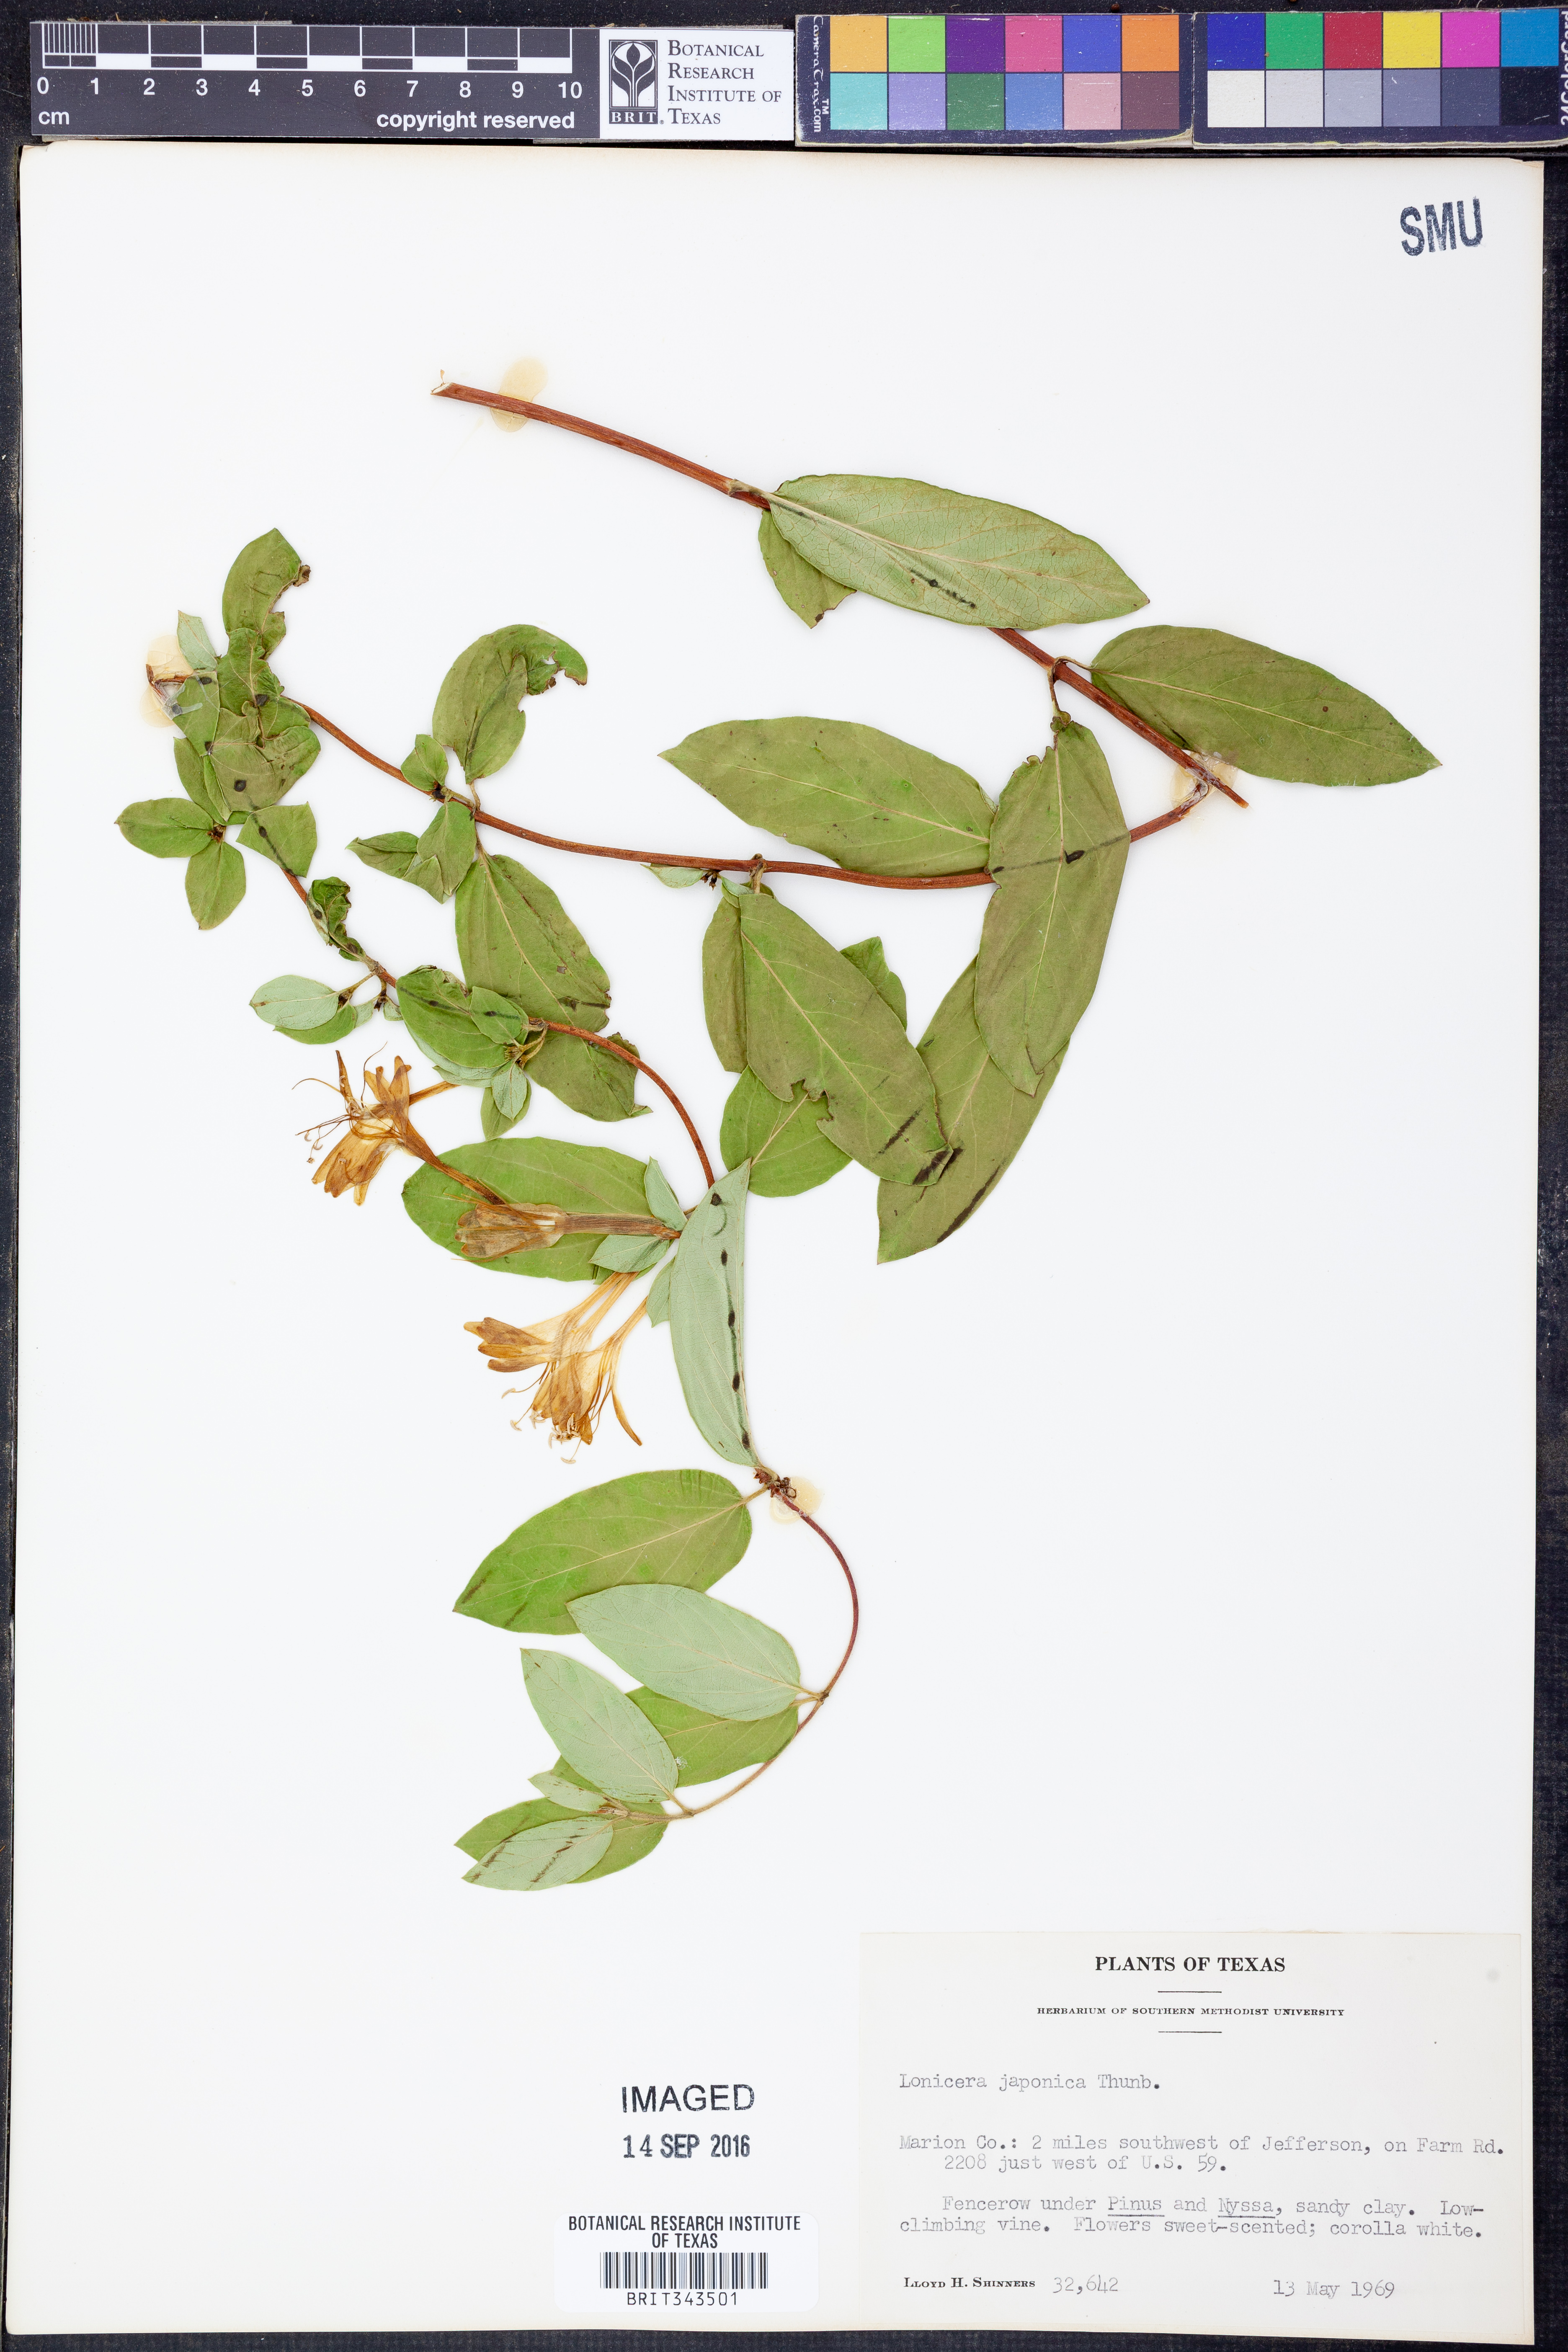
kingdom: Plantae
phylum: Tracheophyta
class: Magnoliopsida
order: Dipsacales
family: Caprifoliaceae
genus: Lonicera
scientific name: Lonicera japonica
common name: Japanese honeysuckle
